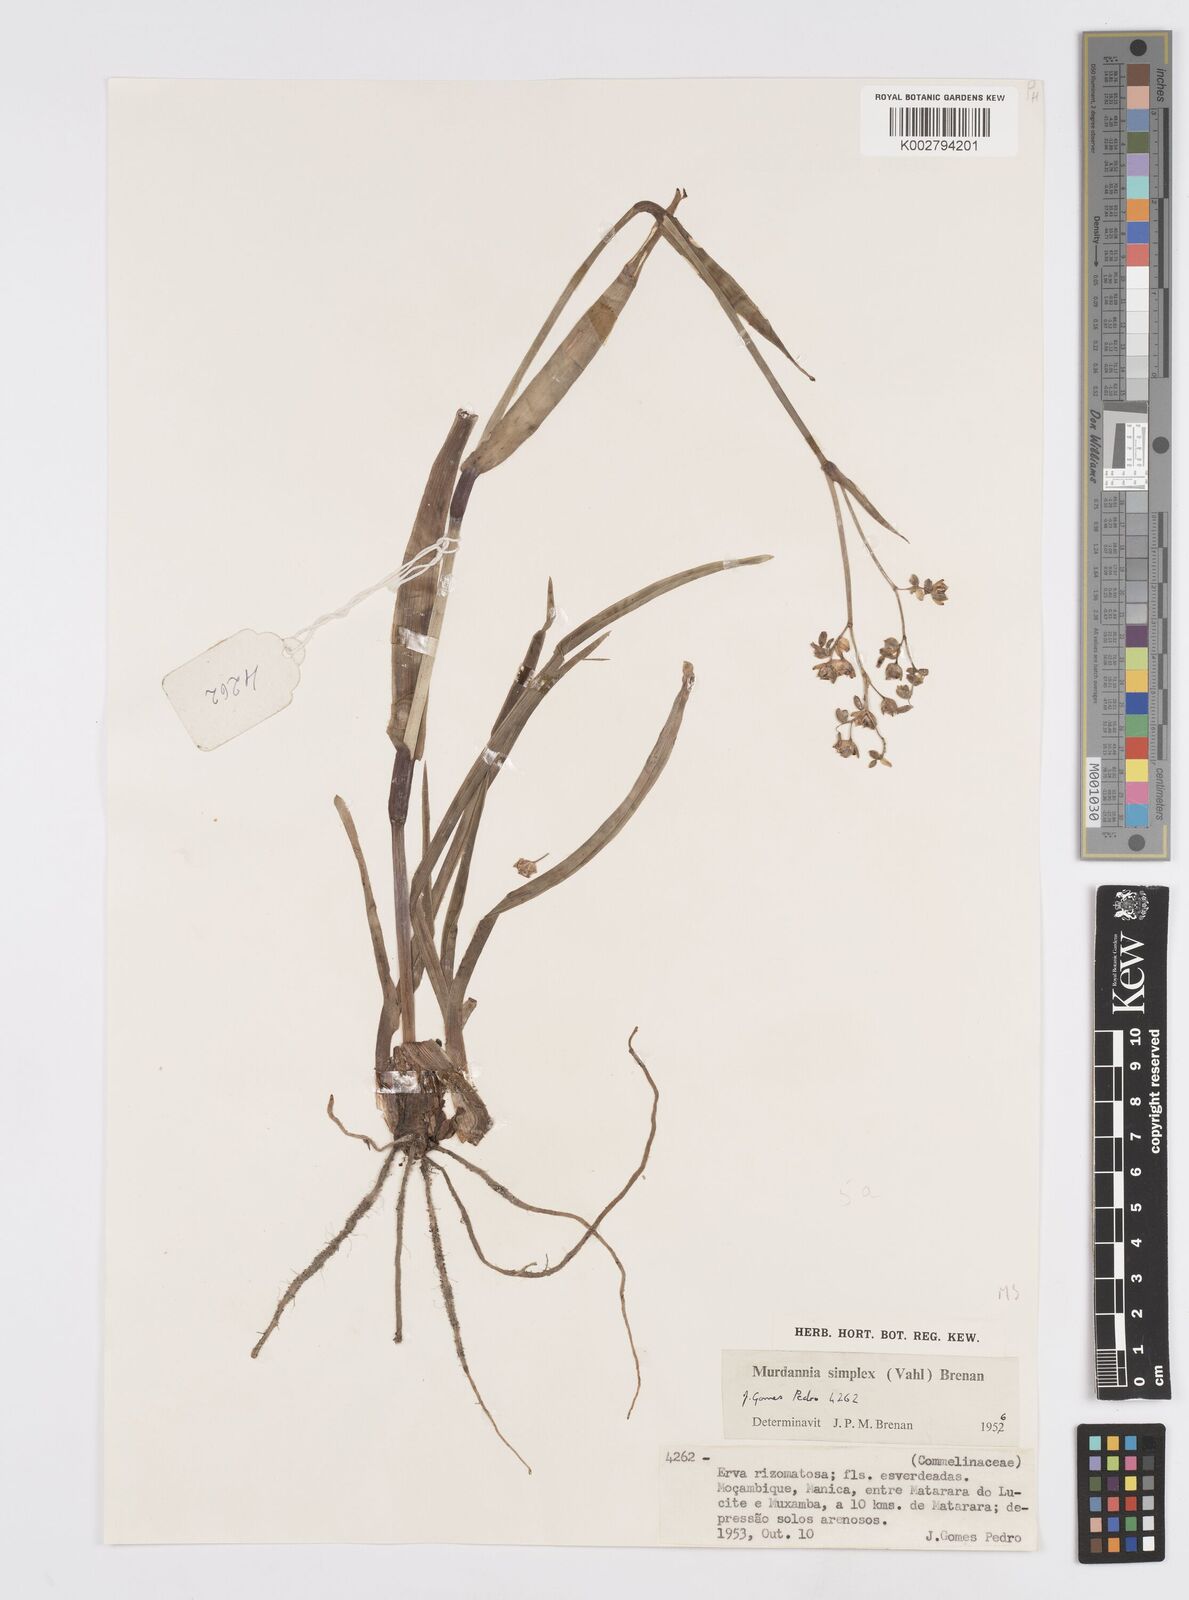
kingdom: Plantae
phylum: Tracheophyta
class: Liliopsida
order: Commelinales
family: Commelinaceae
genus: Murdannia
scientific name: Murdannia simplex
